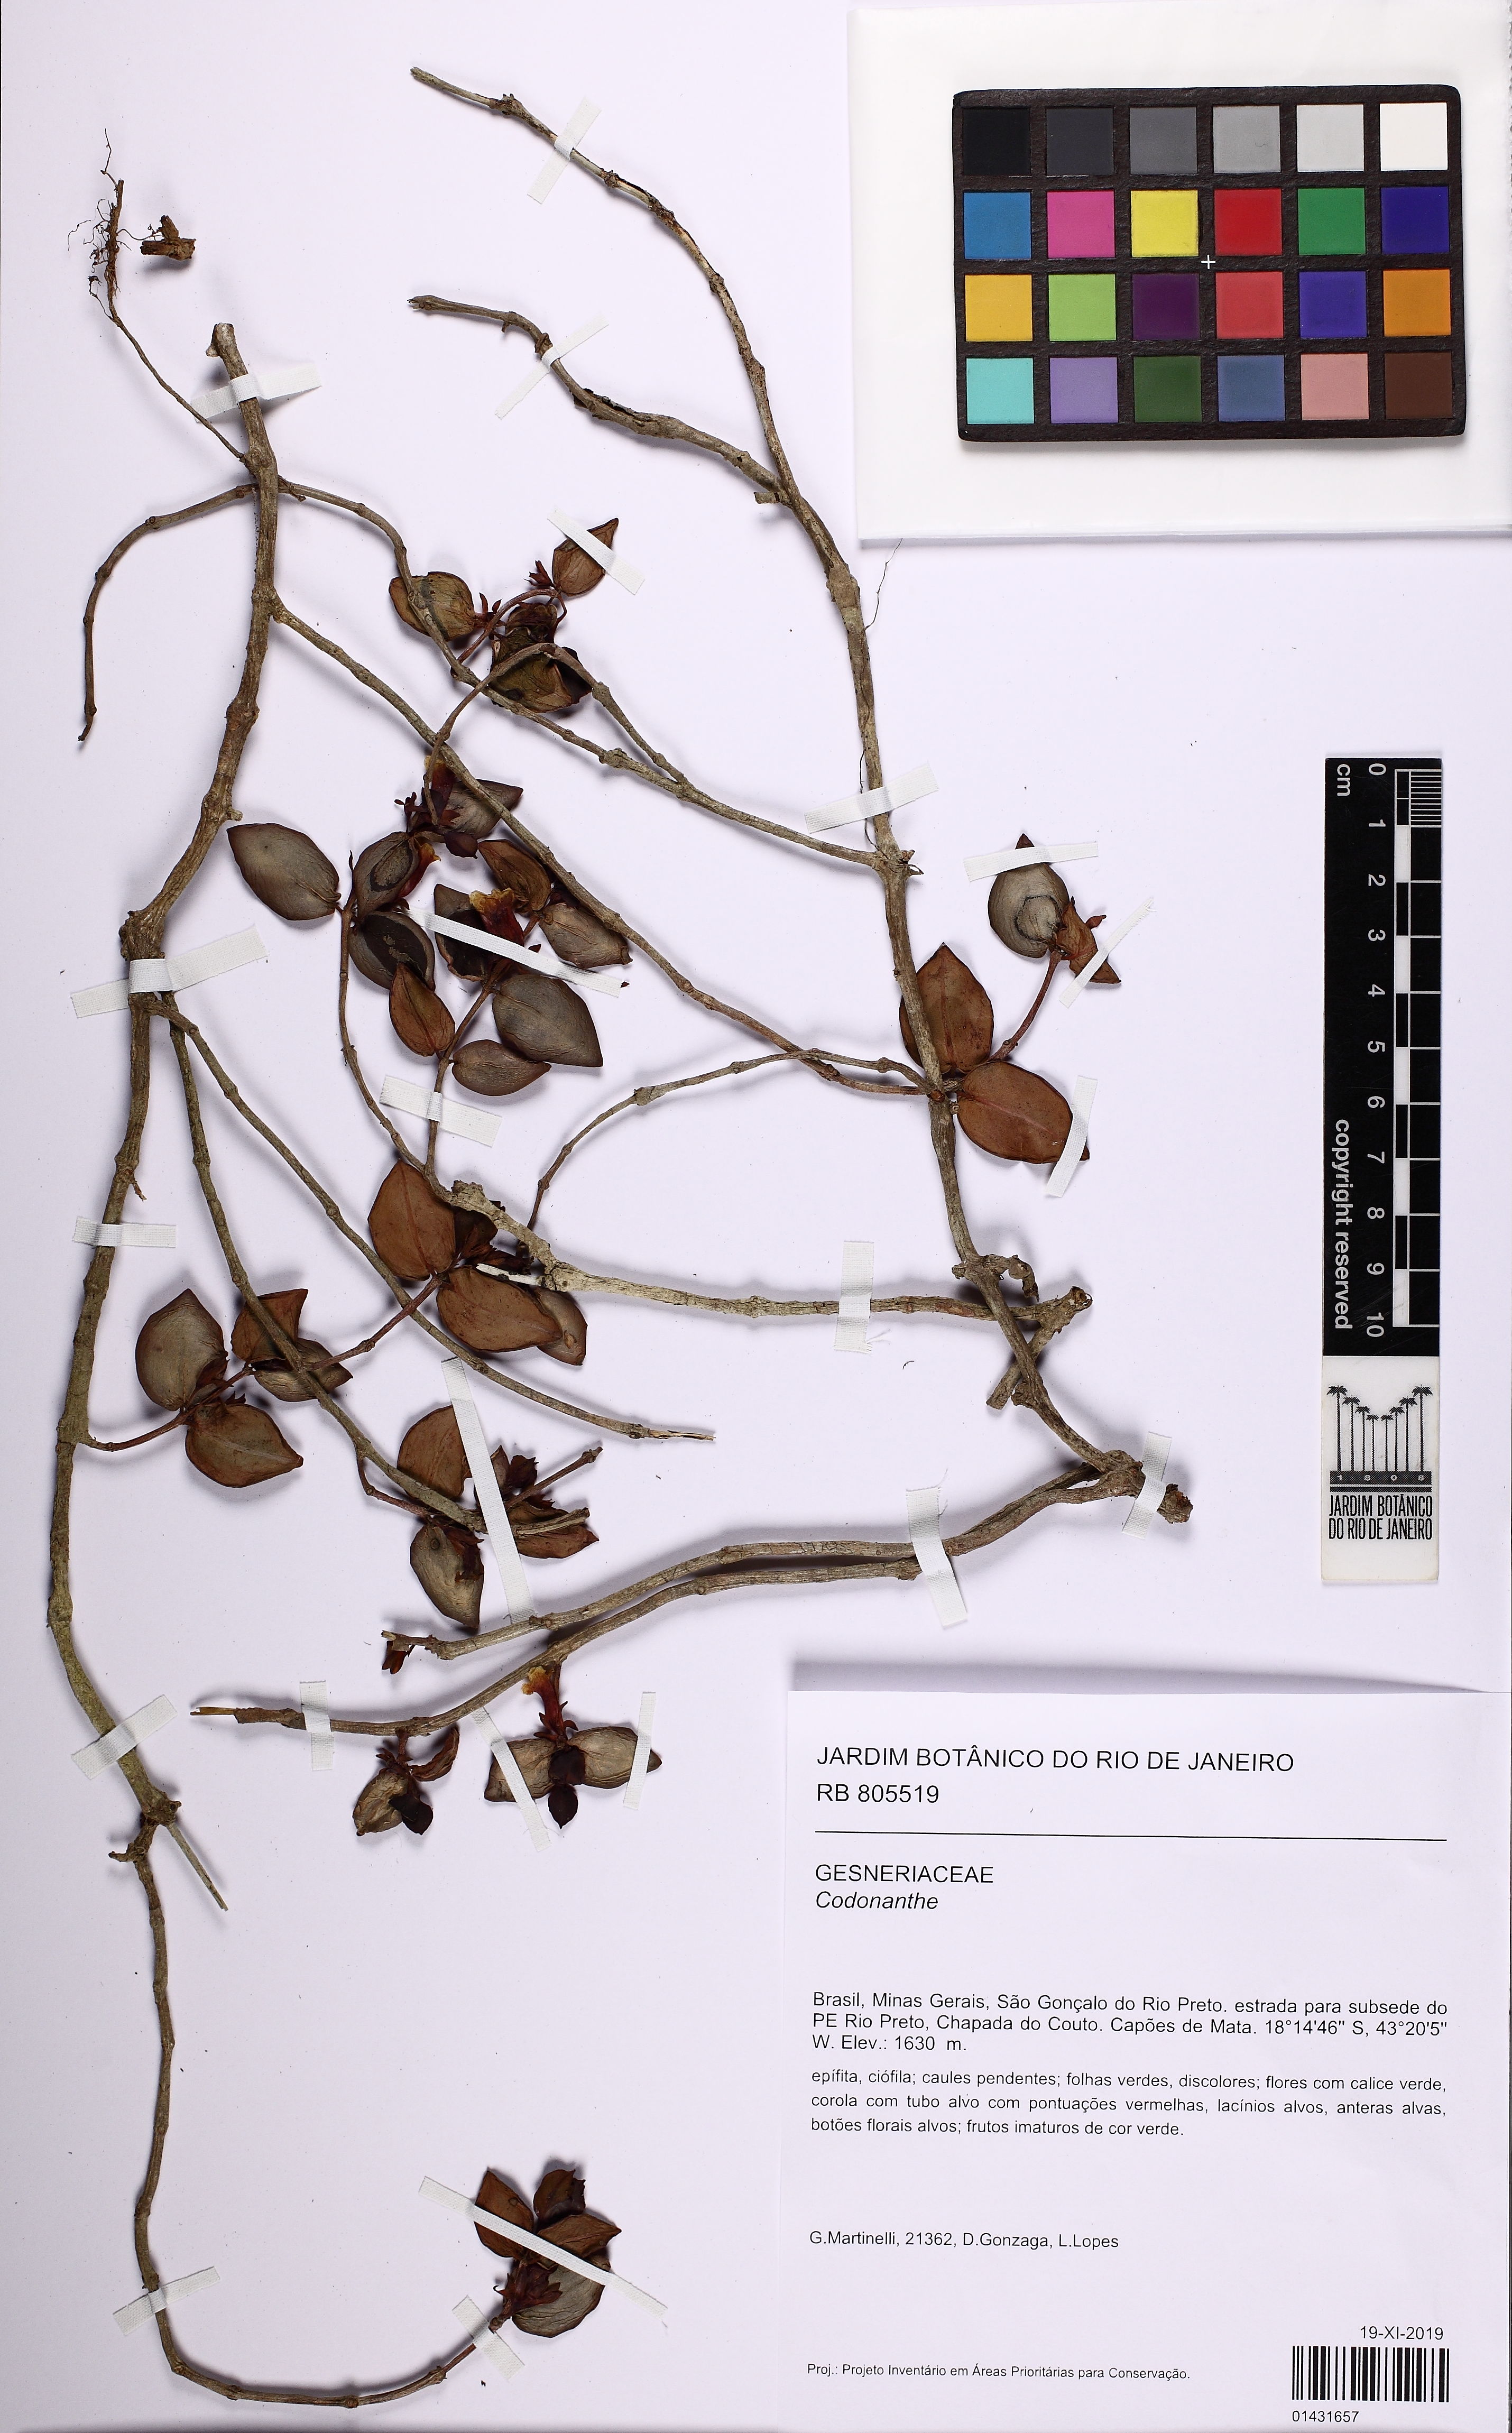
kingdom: Plantae
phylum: Tracheophyta
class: Magnoliopsida
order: Lamiales
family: Gesneriaceae
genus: Codonanthe
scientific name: Codonanthe
